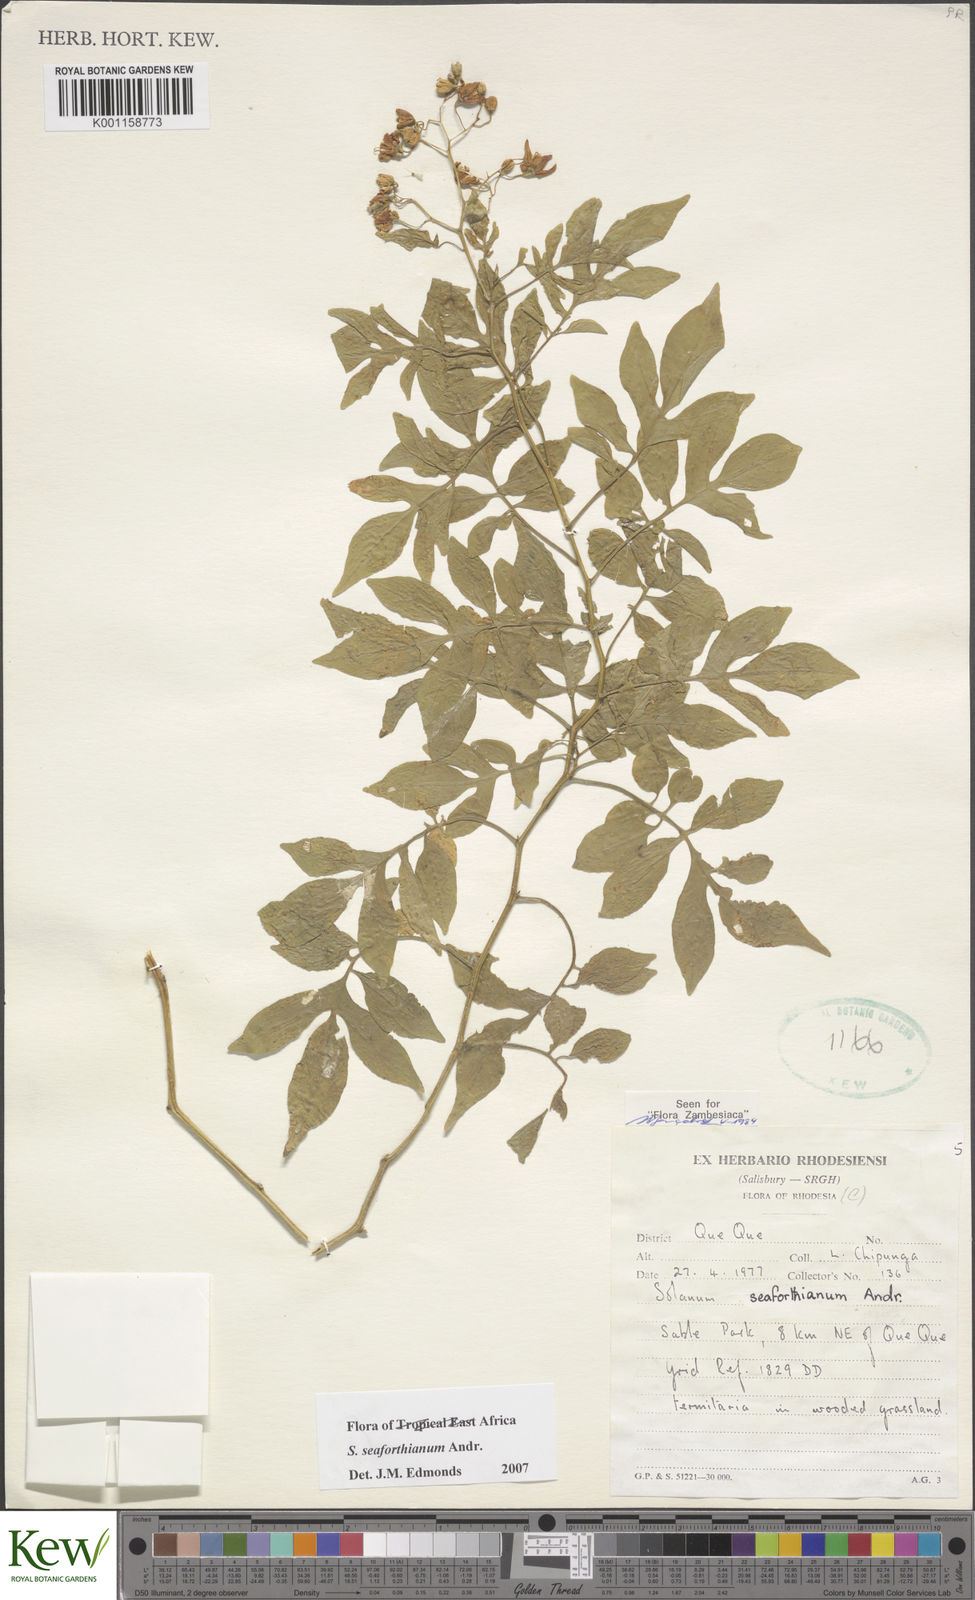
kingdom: Plantae
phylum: Tracheophyta
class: Magnoliopsida
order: Solanales
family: Solanaceae
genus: Solanum
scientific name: Solanum seaforthianum
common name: Brazilian nightshade
